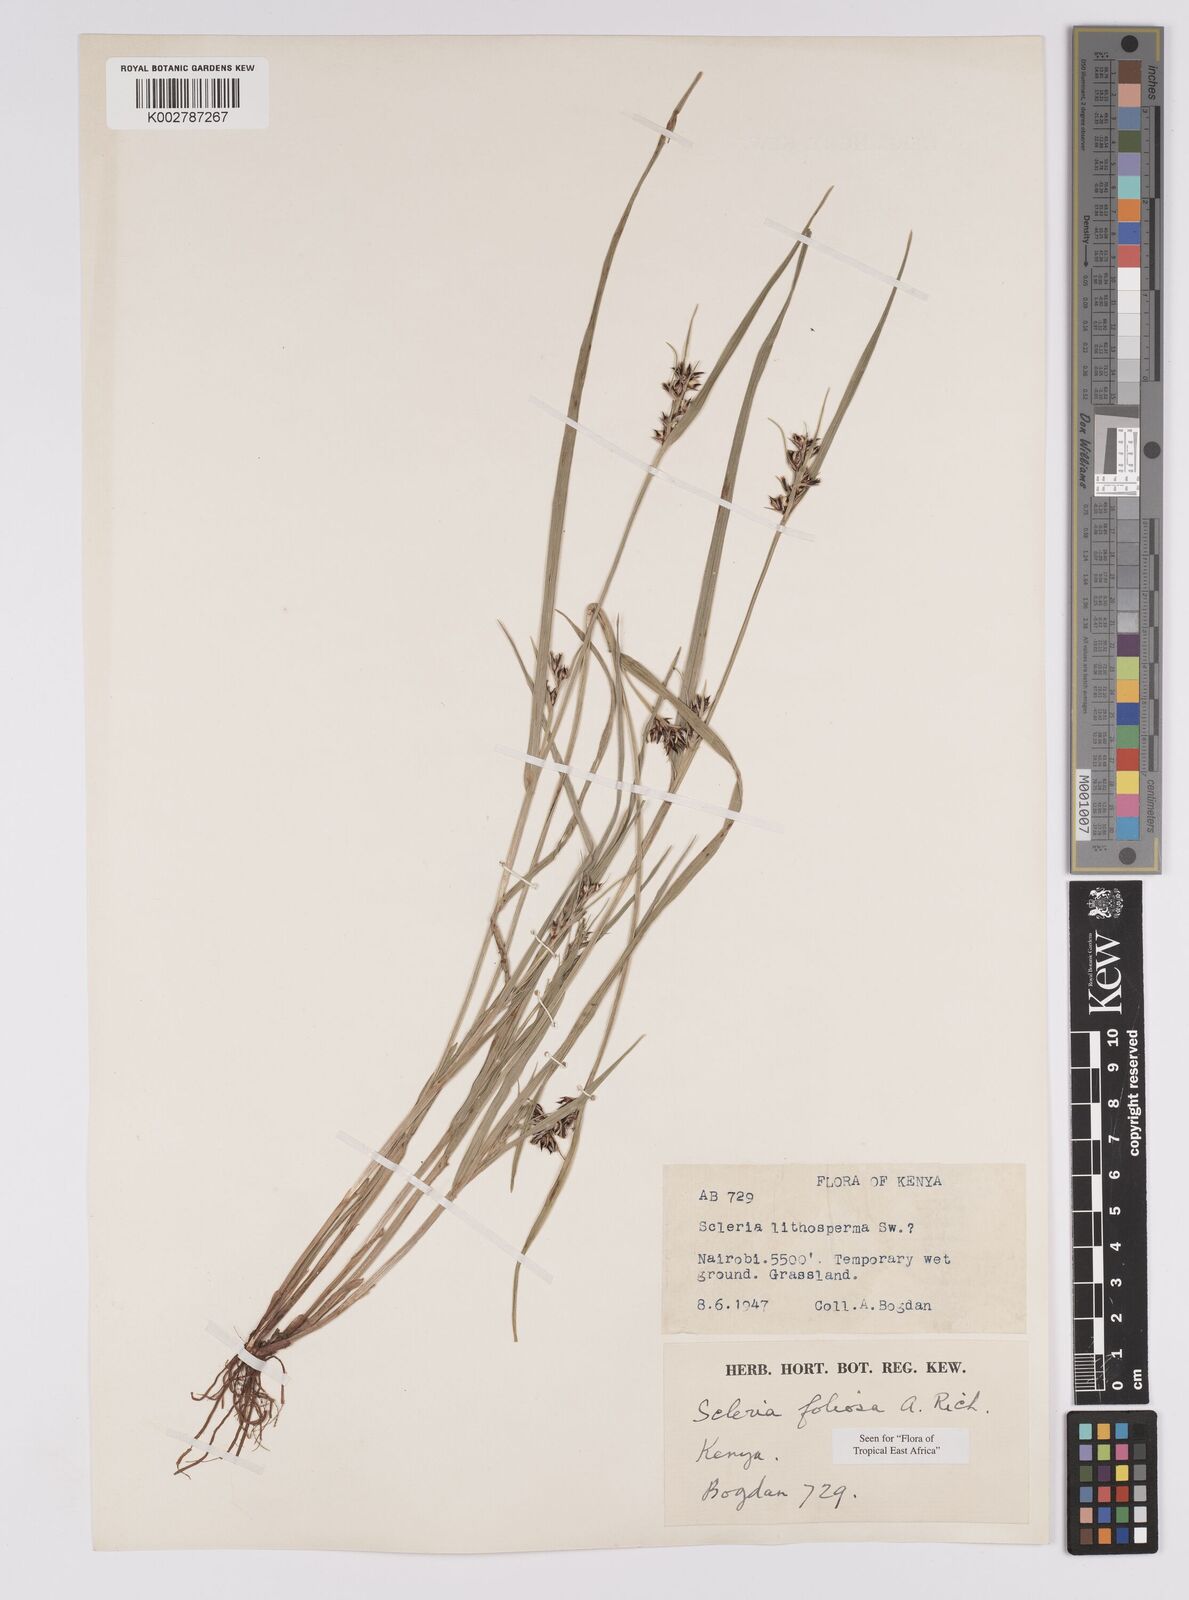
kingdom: Plantae
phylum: Tracheophyta
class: Liliopsida
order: Poales
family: Cyperaceae
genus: Scleria
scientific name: Scleria foliosa
